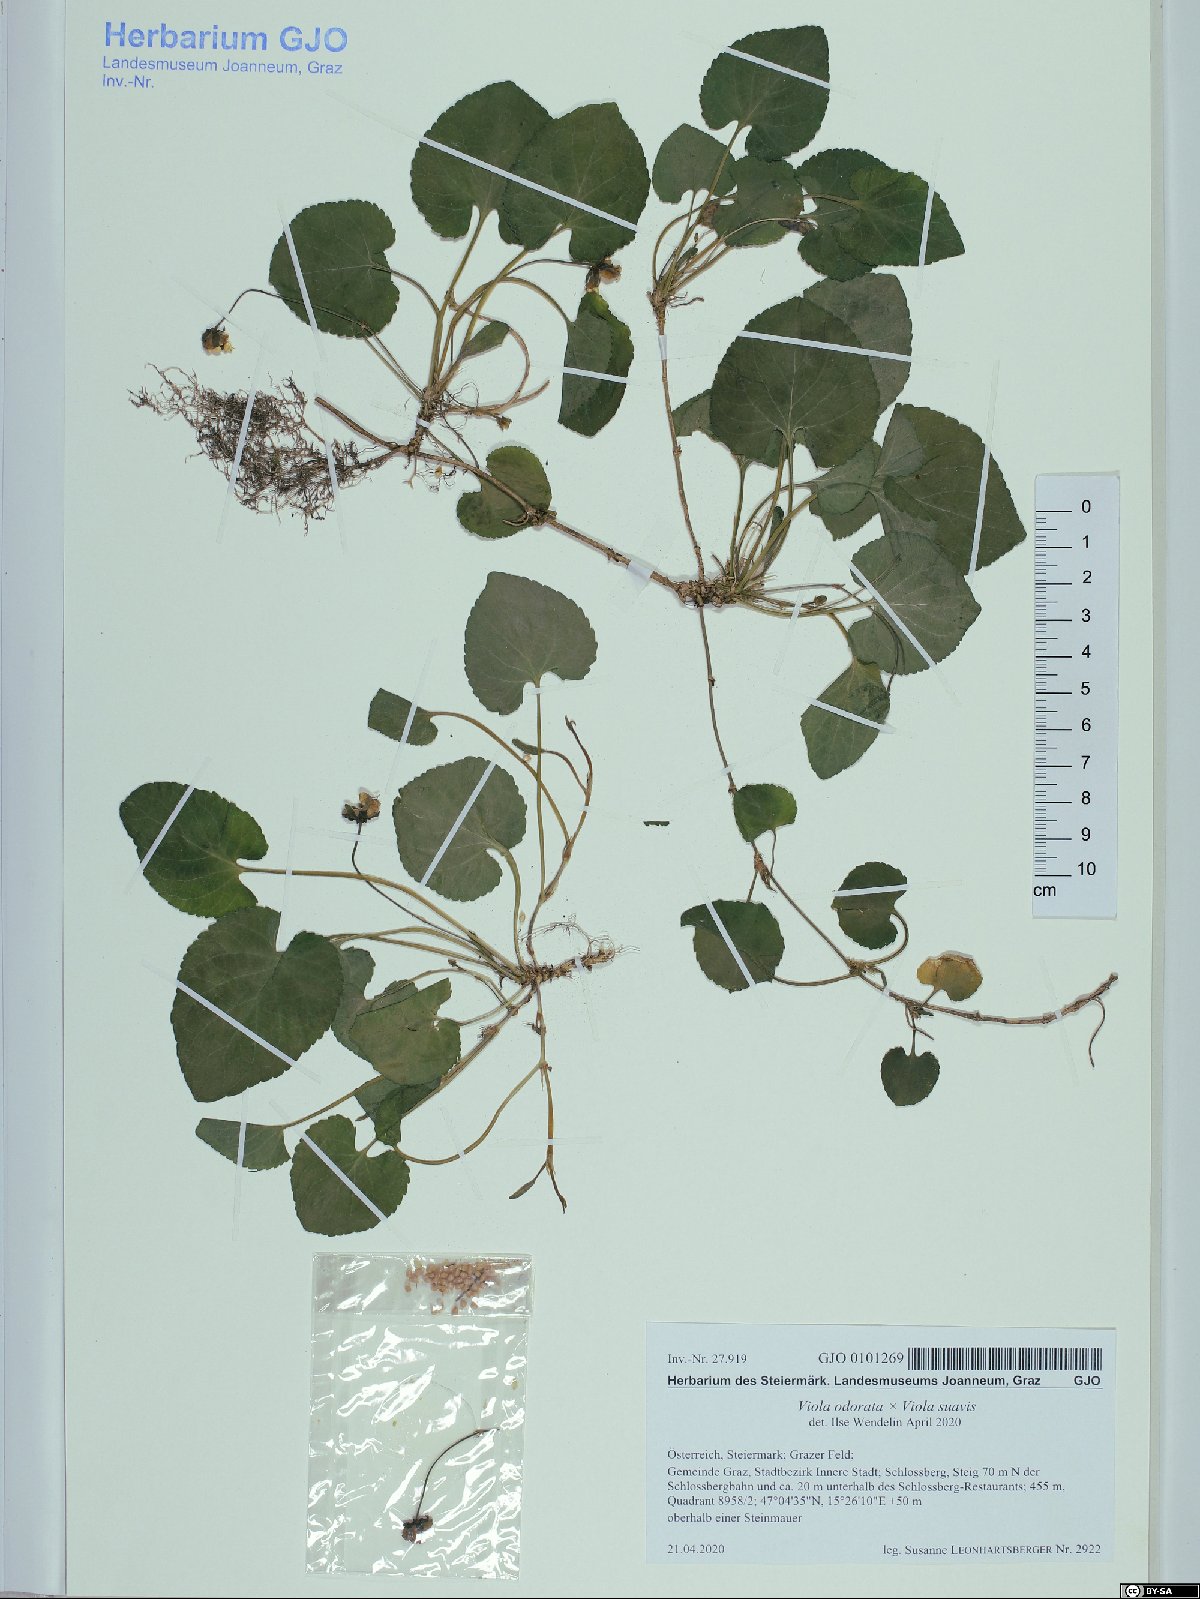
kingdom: Plantae
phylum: Tracheophyta
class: Magnoliopsida
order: Malpighiales
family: Violaceae
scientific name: Violaceae
